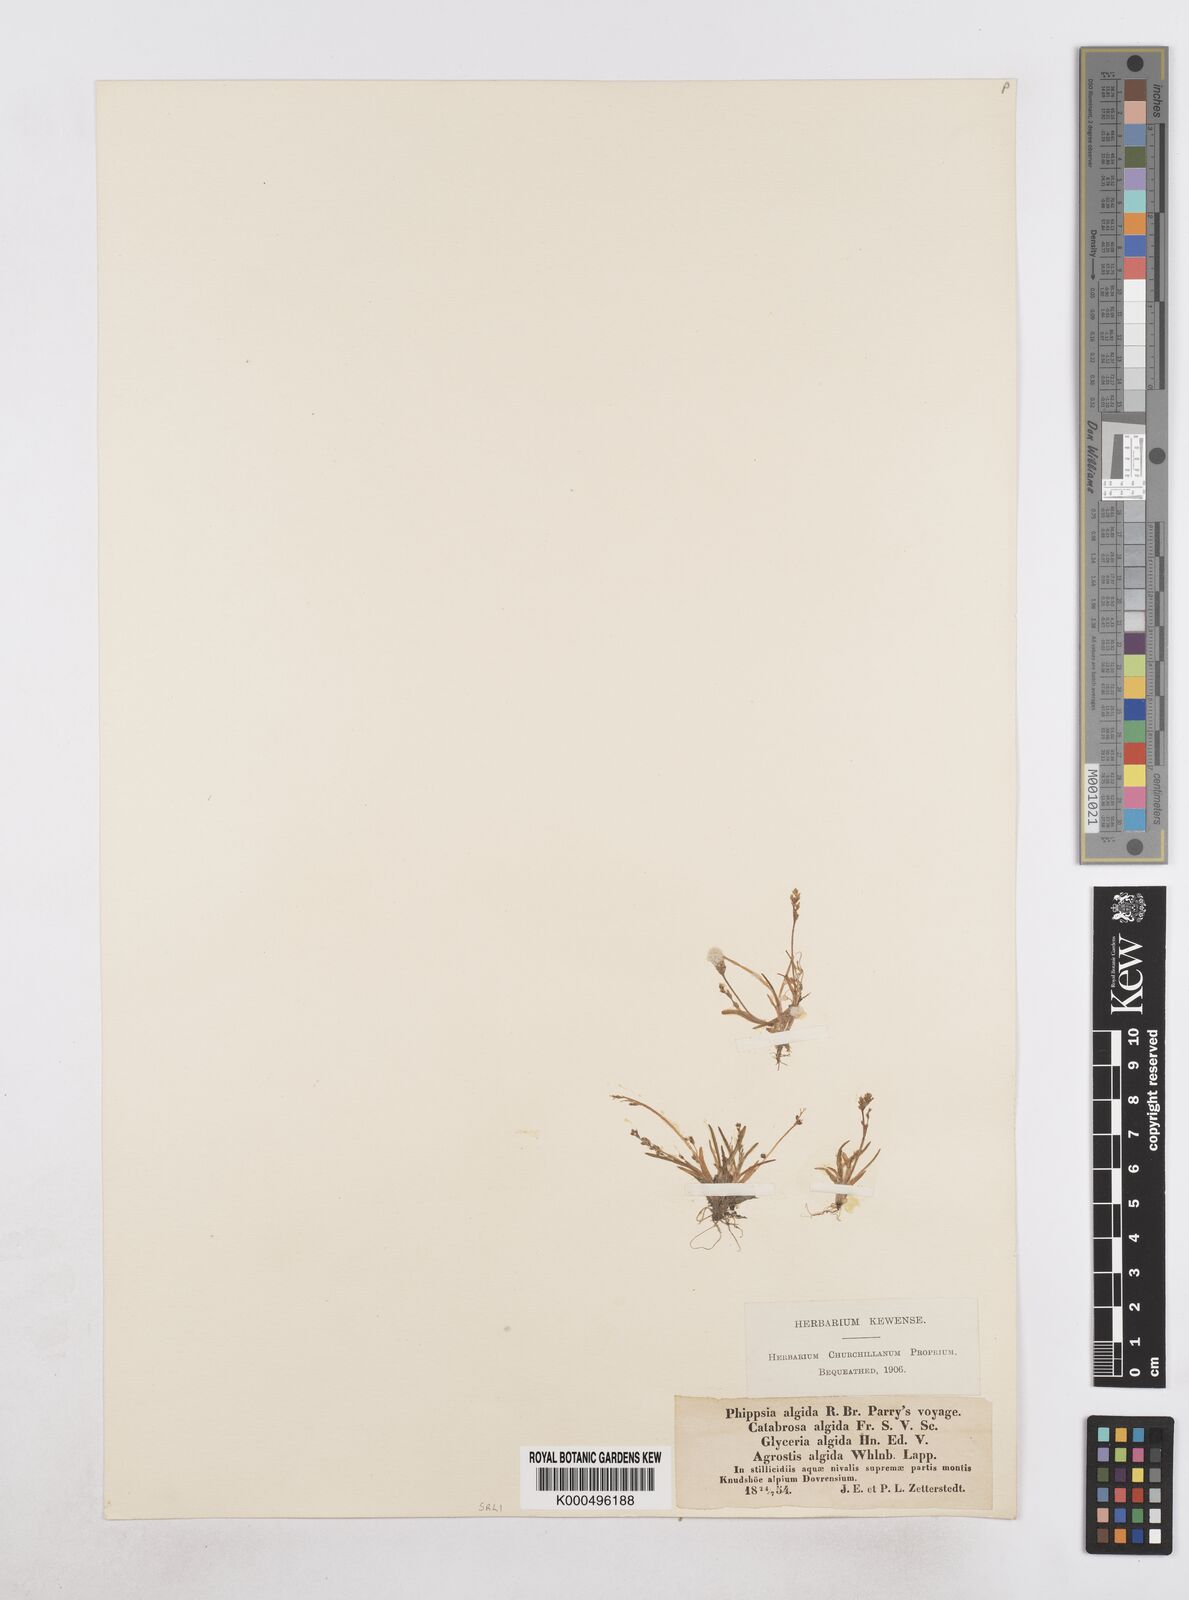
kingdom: Plantae
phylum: Tracheophyta
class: Liliopsida
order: Poales
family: Poaceae
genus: Phippsia
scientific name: Phippsia algida
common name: Ice grass
